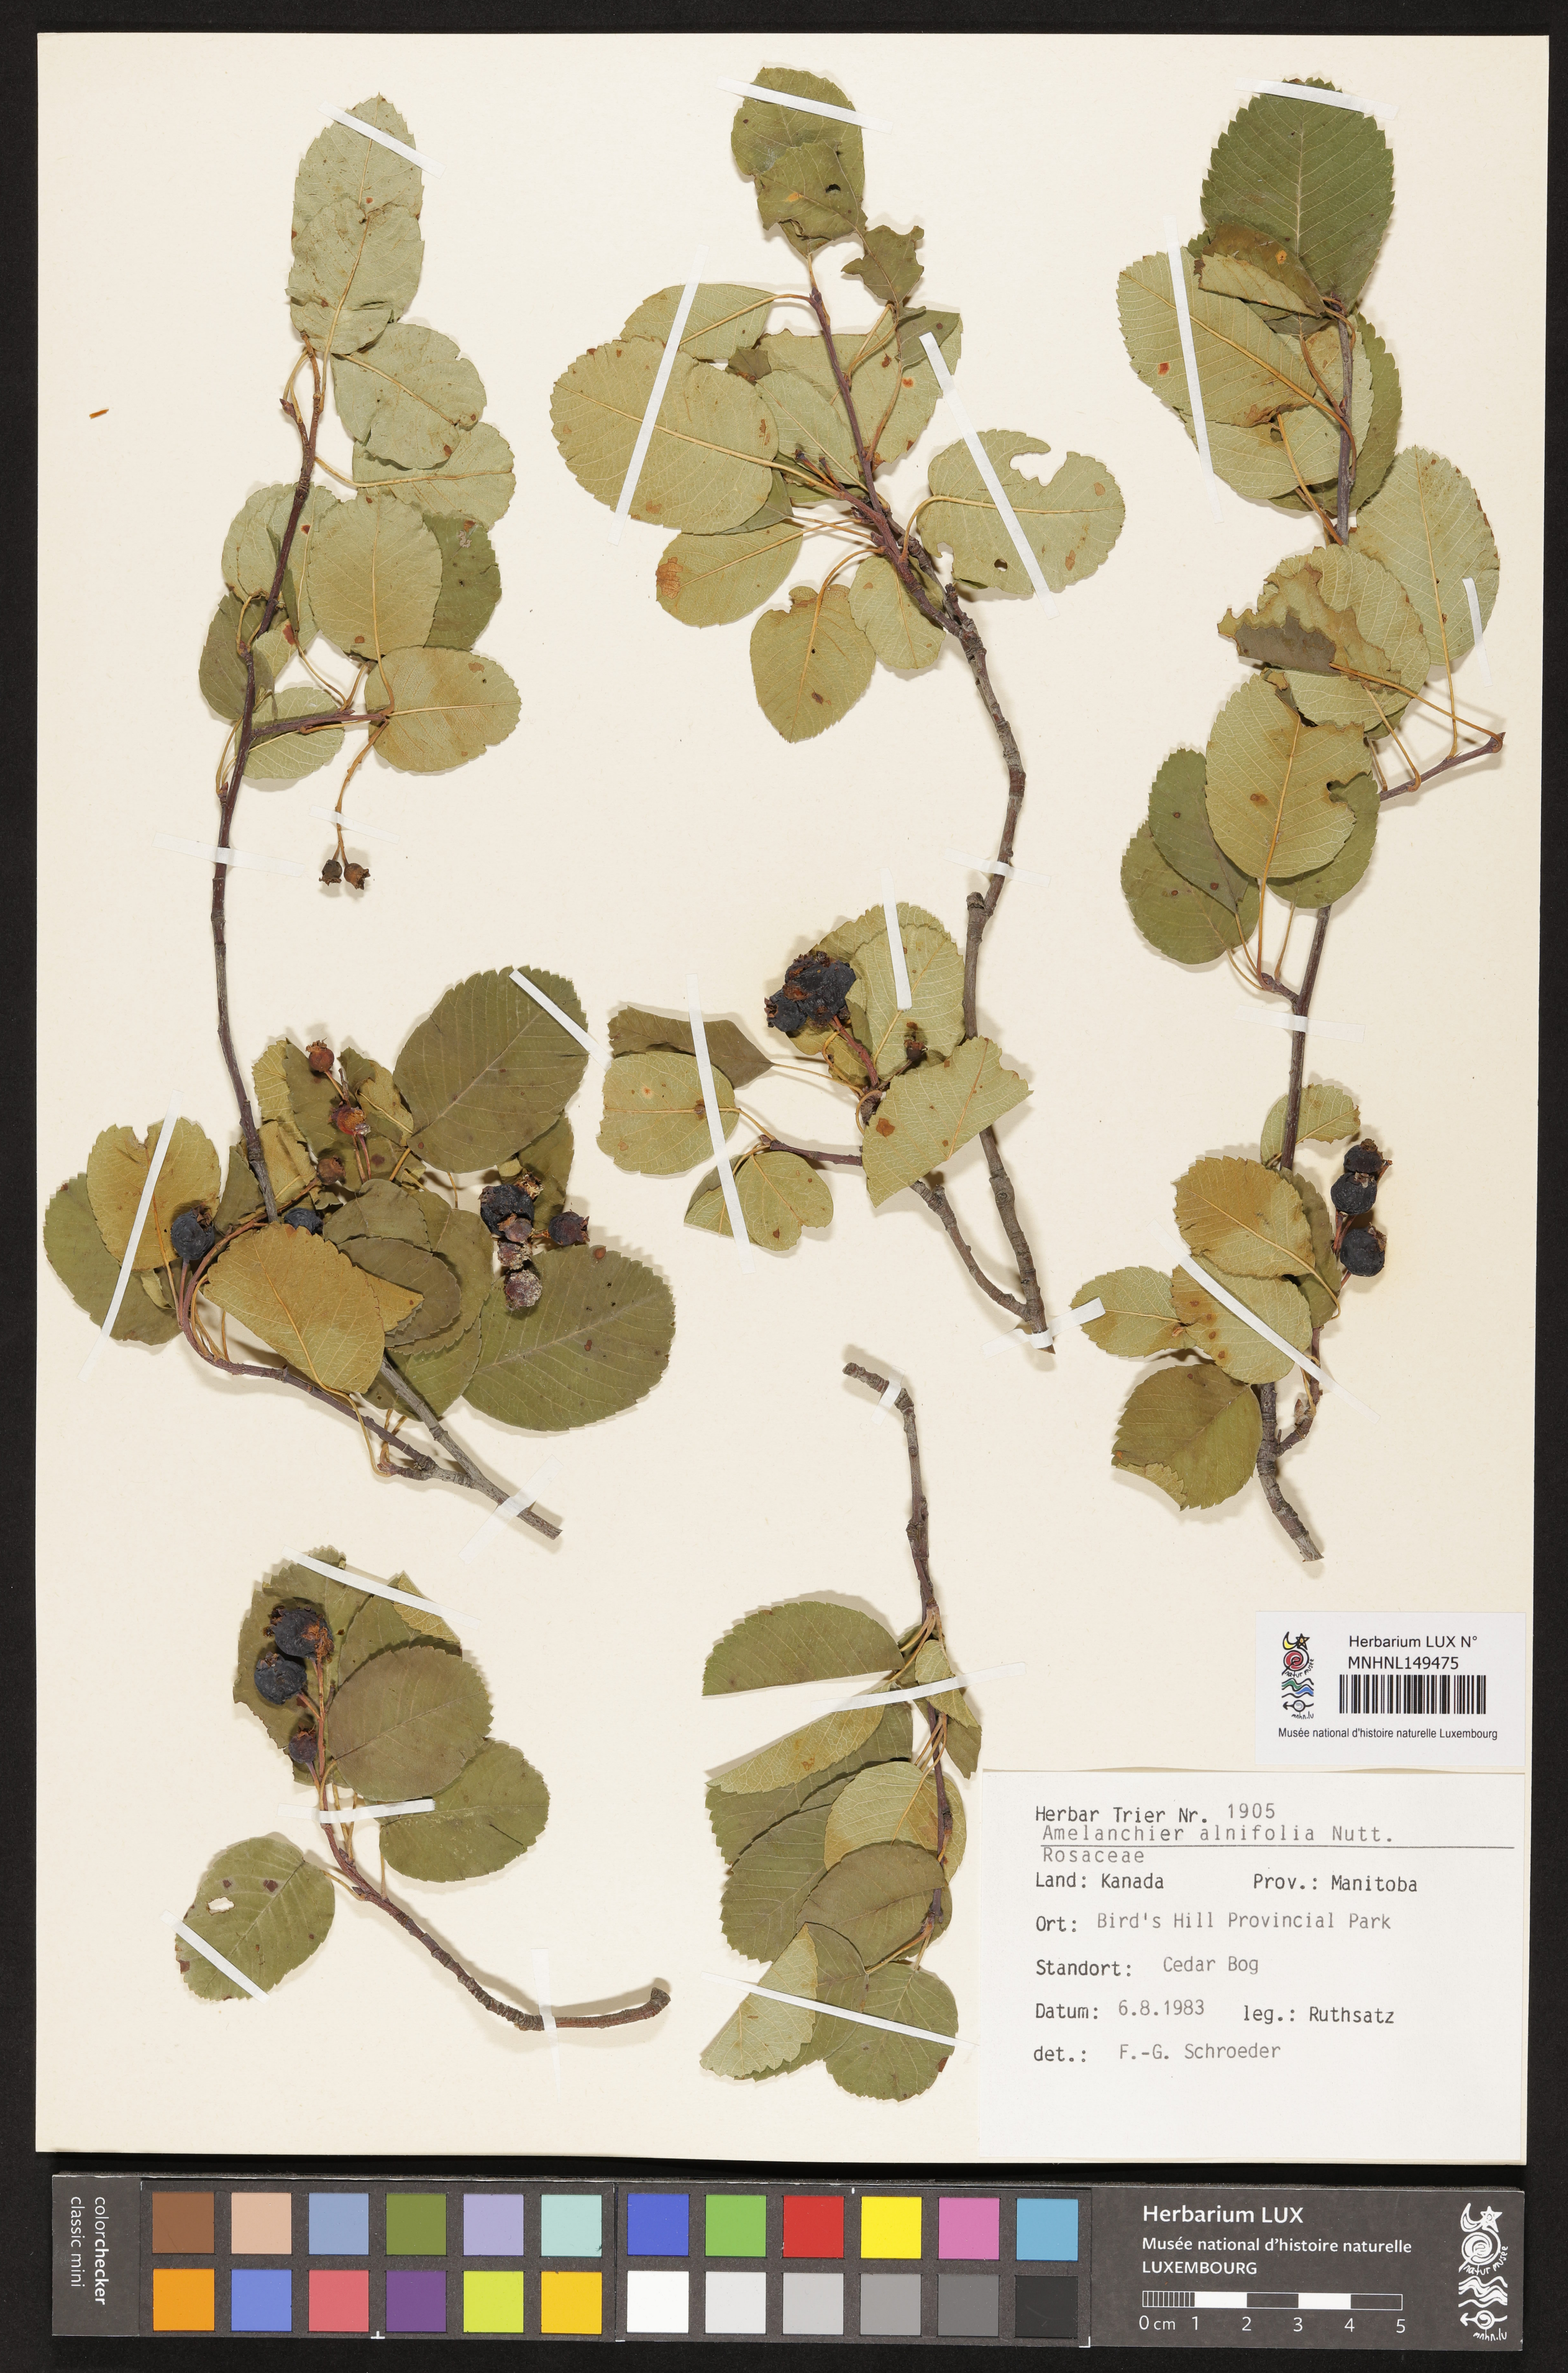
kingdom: Plantae
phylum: Tracheophyta
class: Magnoliopsida
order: Rosales
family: Rosaceae
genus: Amelanchier
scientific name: Amelanchier alnifolia
